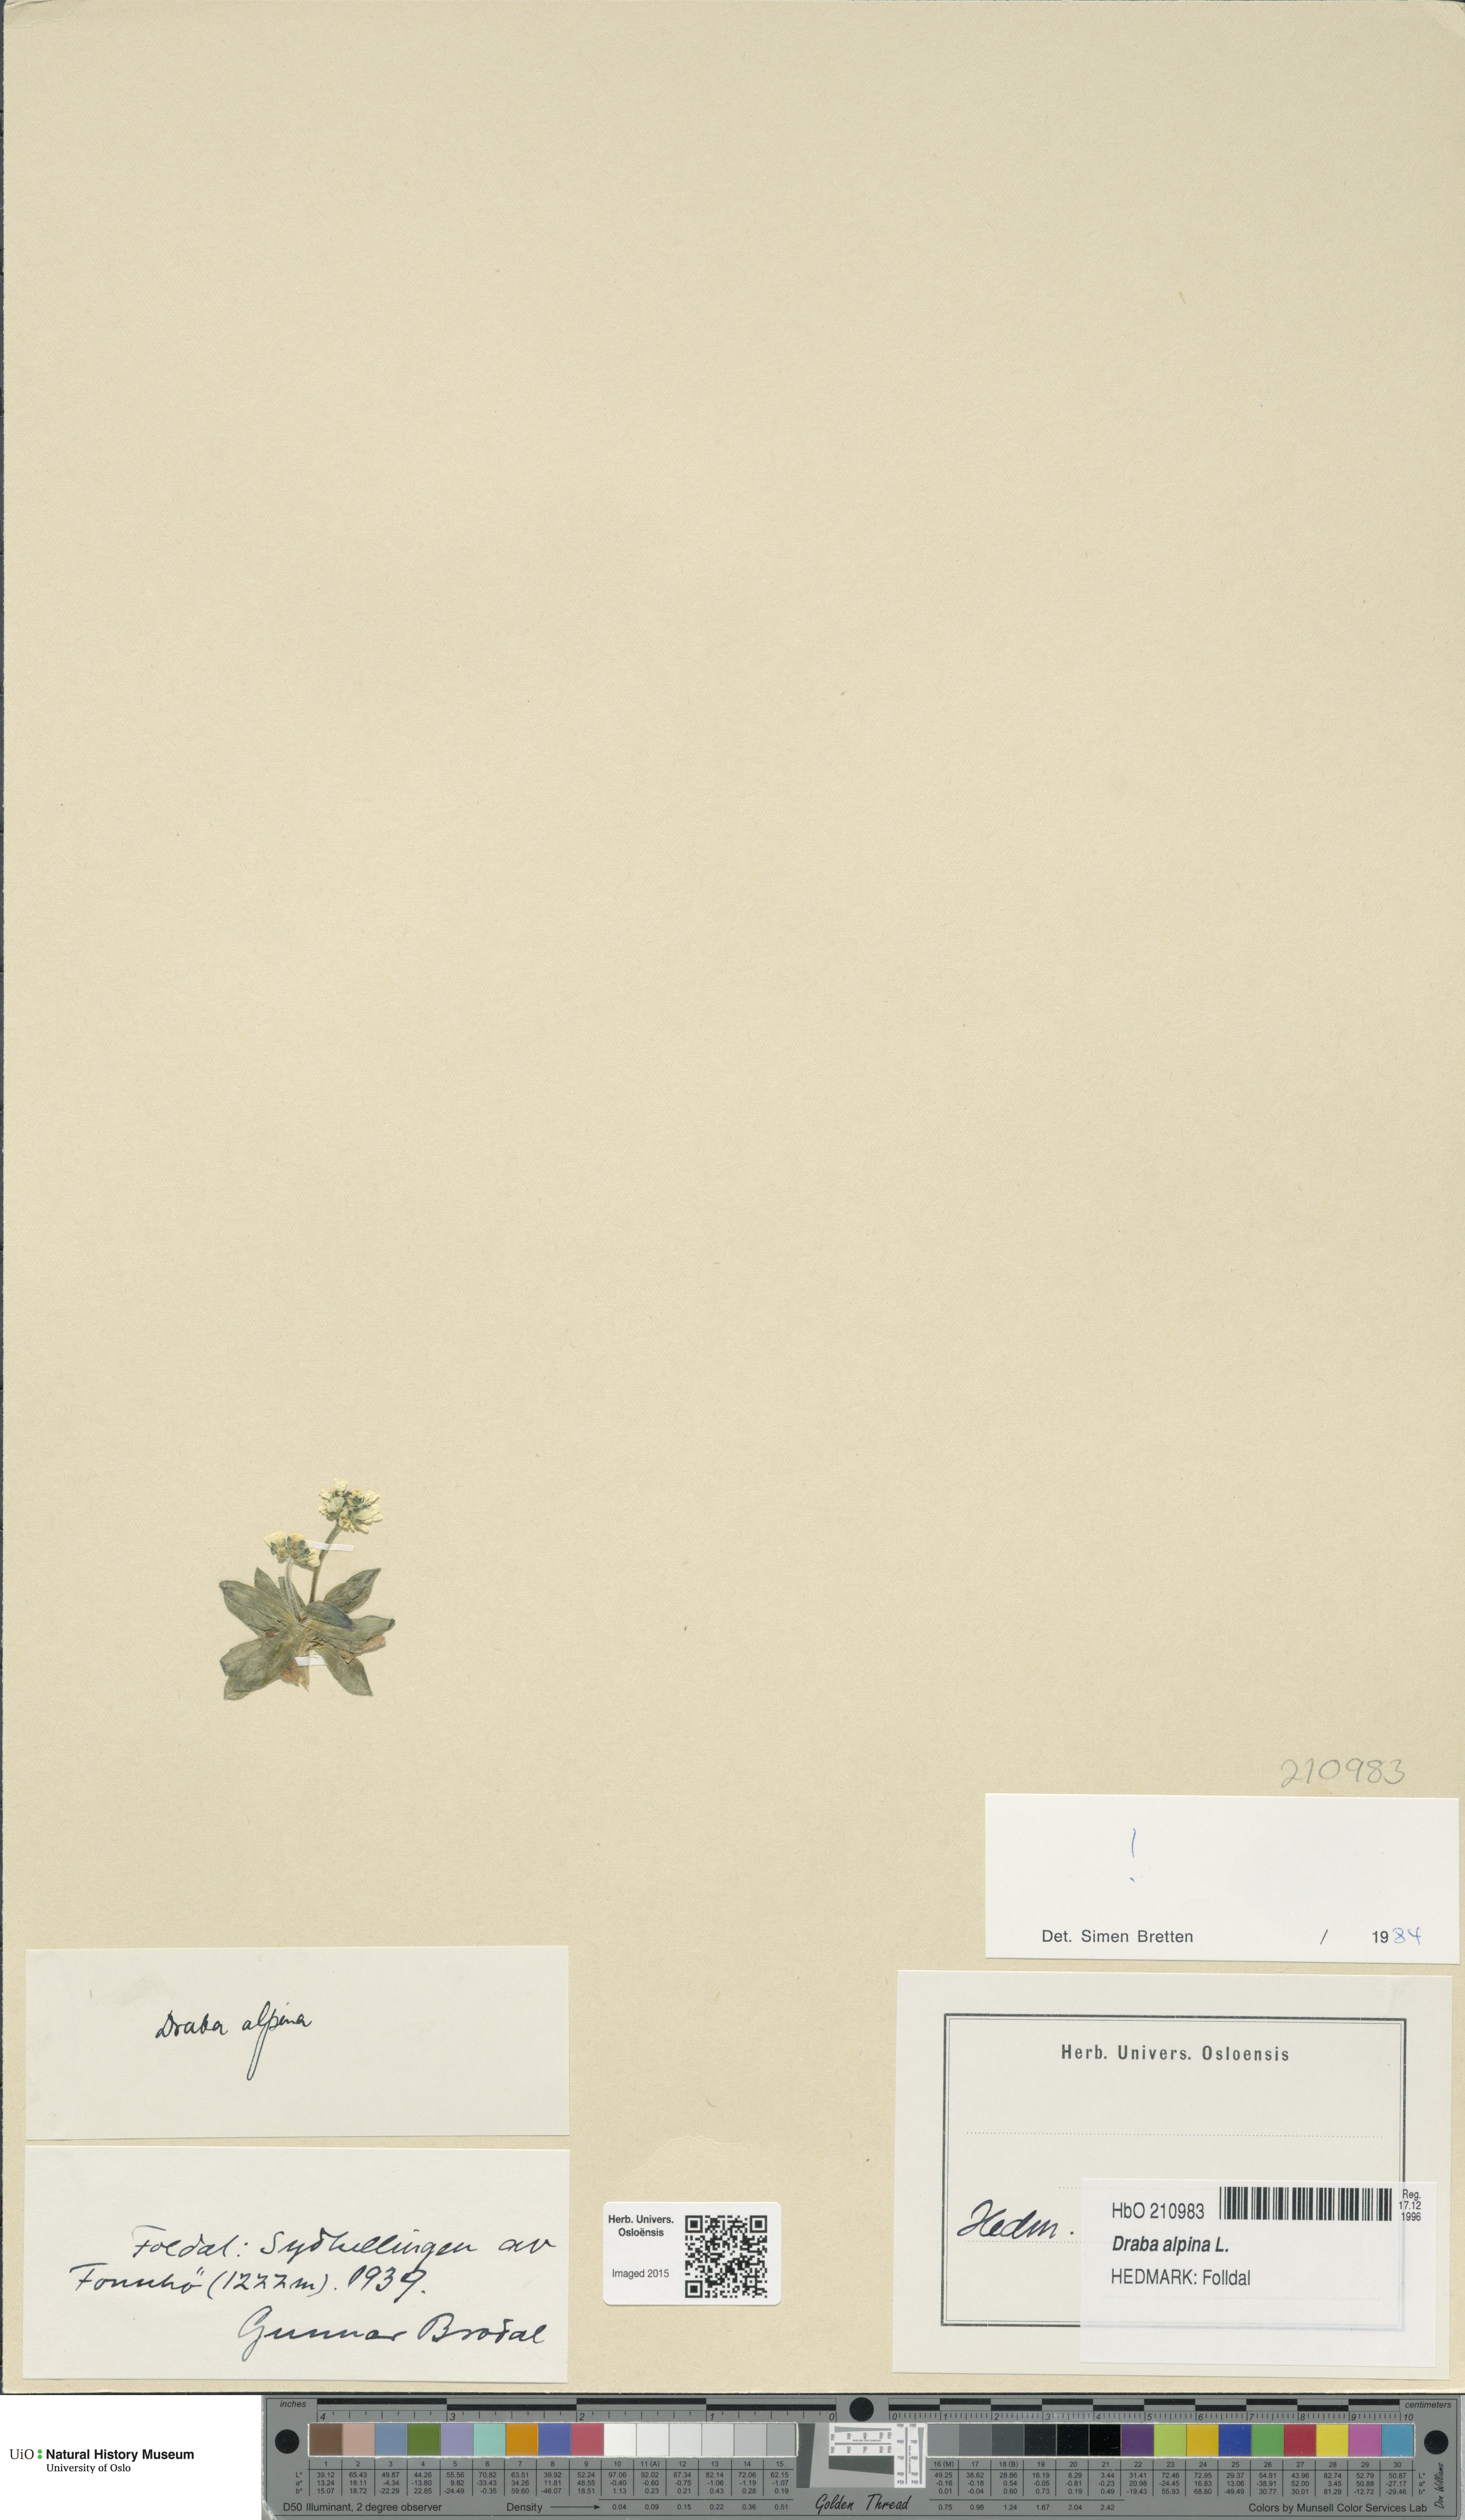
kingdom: Plantae
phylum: Tracheophyta
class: Magnoliopsida
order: Brassicales
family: Brassicaceae
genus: Draba
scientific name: Draba alpina
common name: Alpine draba
